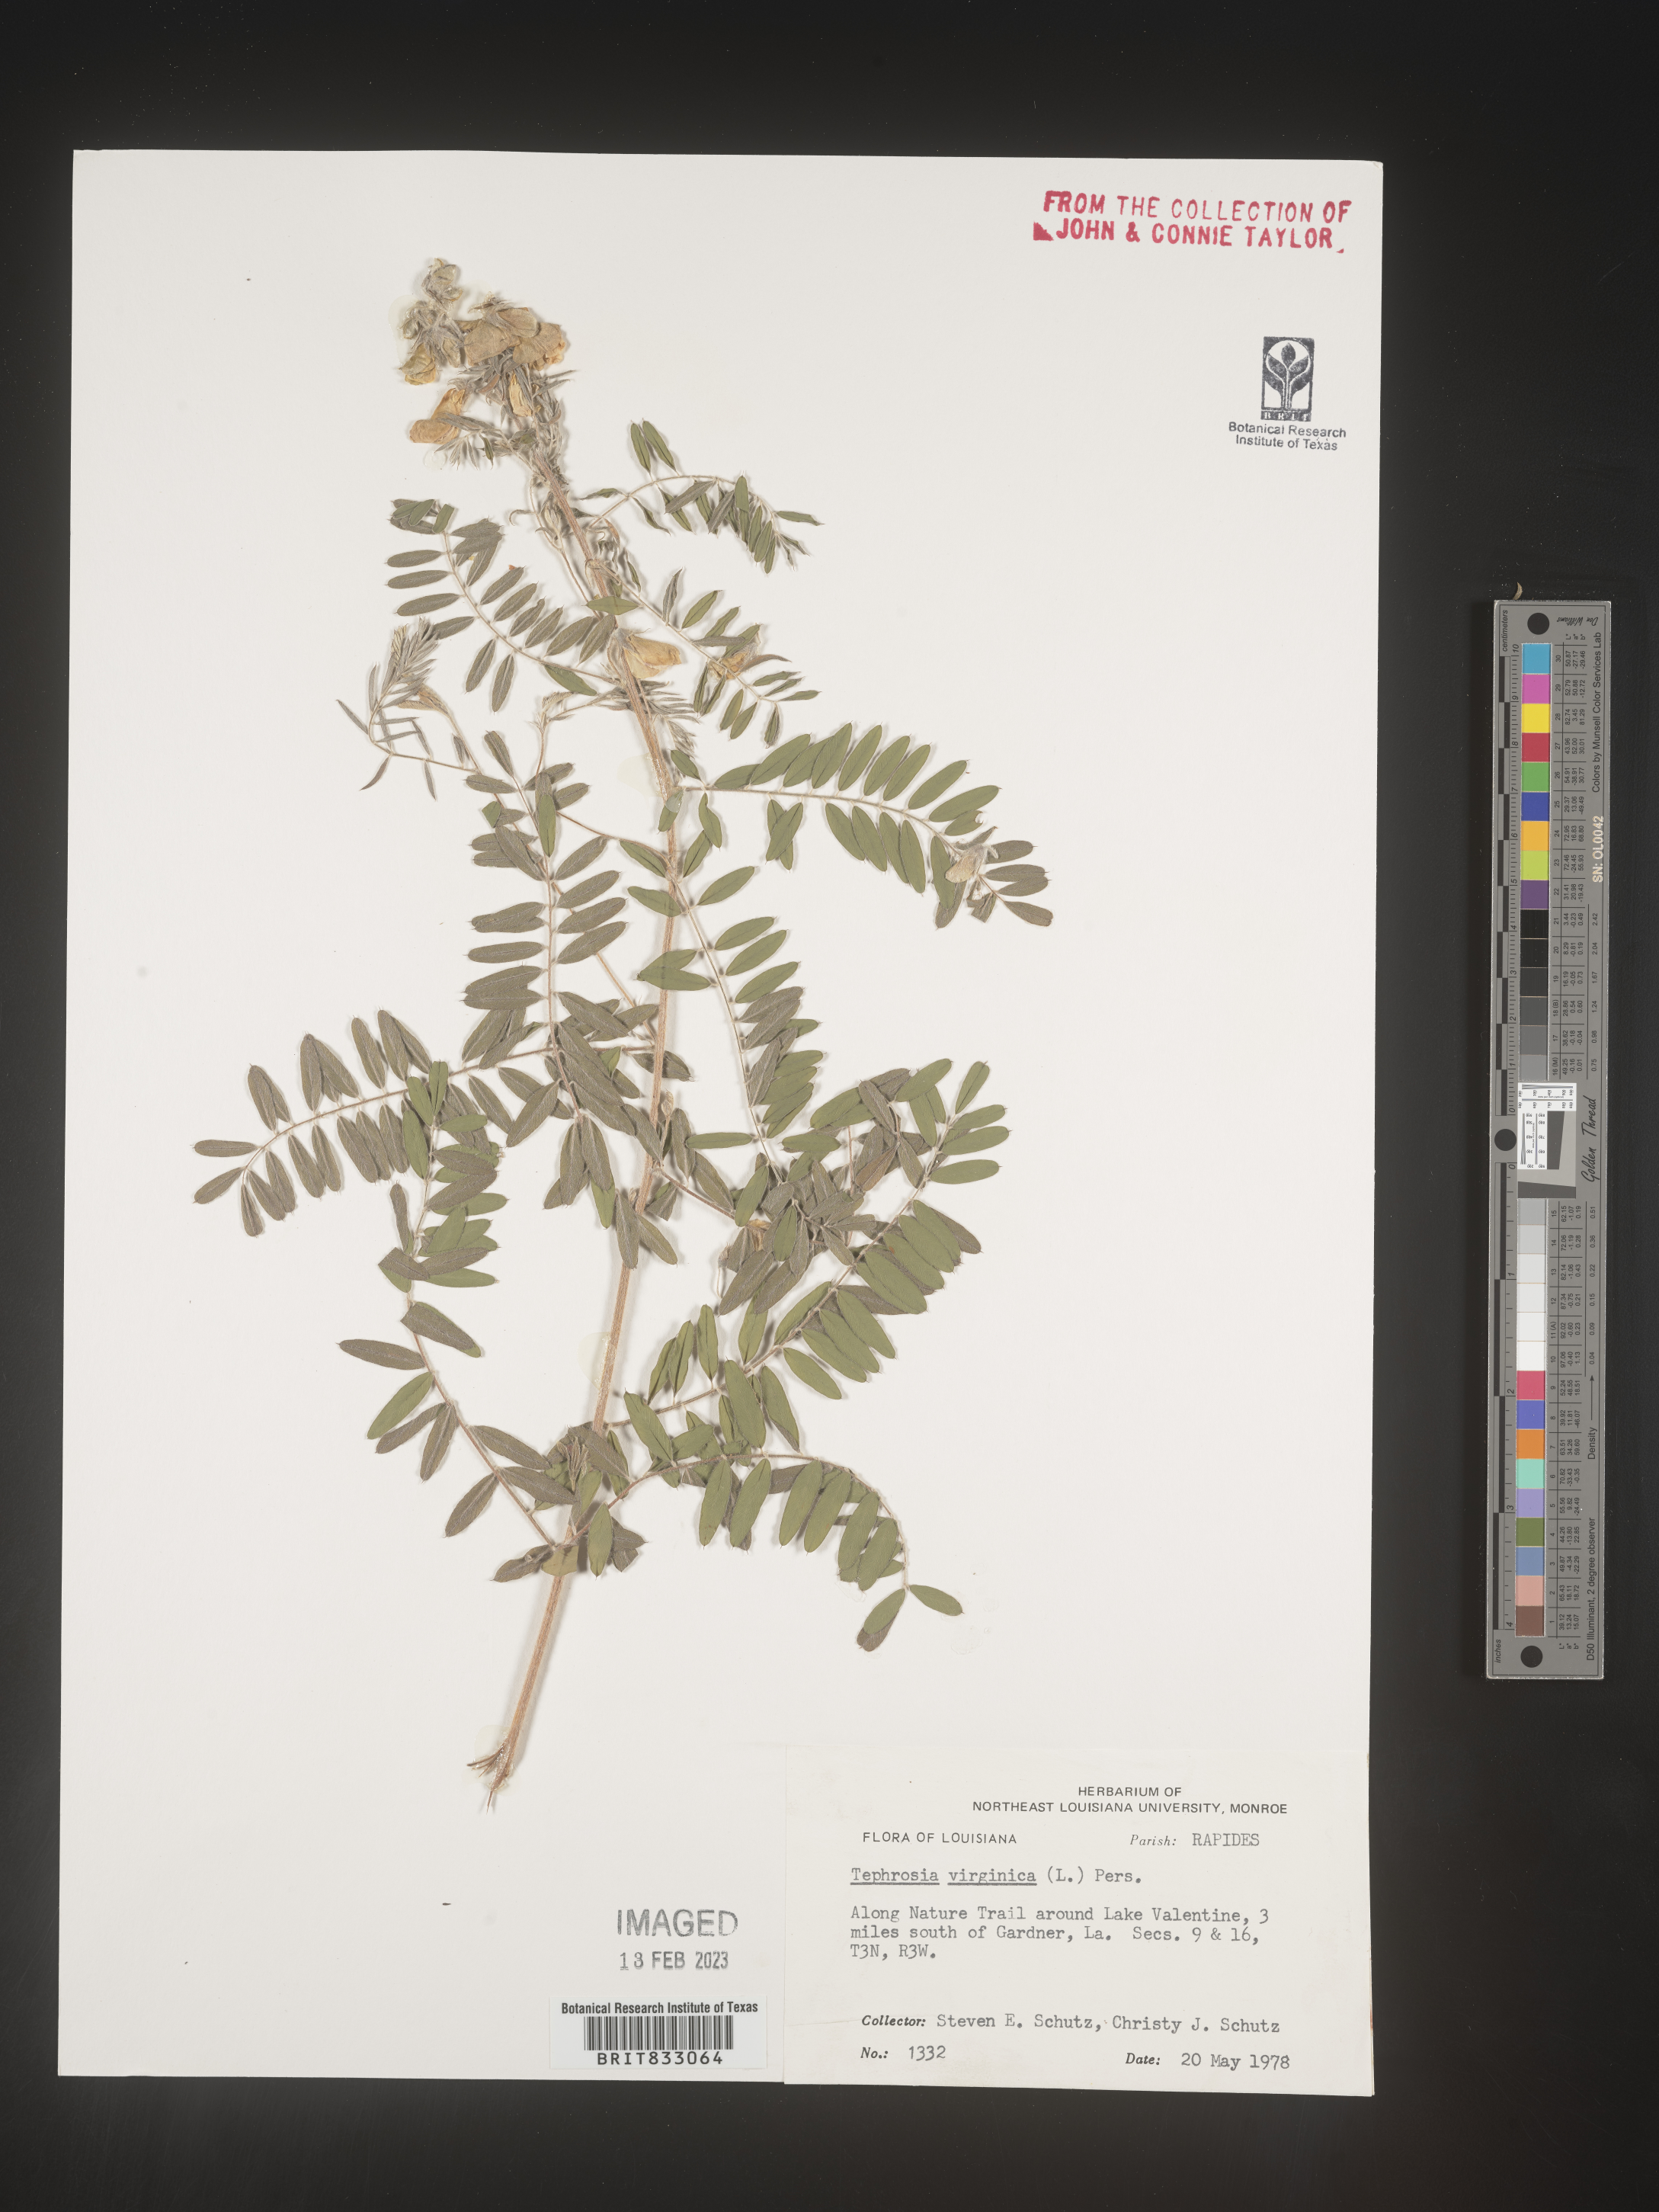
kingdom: Plantae
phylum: Tracheophyta
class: Magnoliopsida
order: Fabales
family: Fabaceae
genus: Tephrosia
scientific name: Tephrosia virginiana
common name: Rabbit-pea
